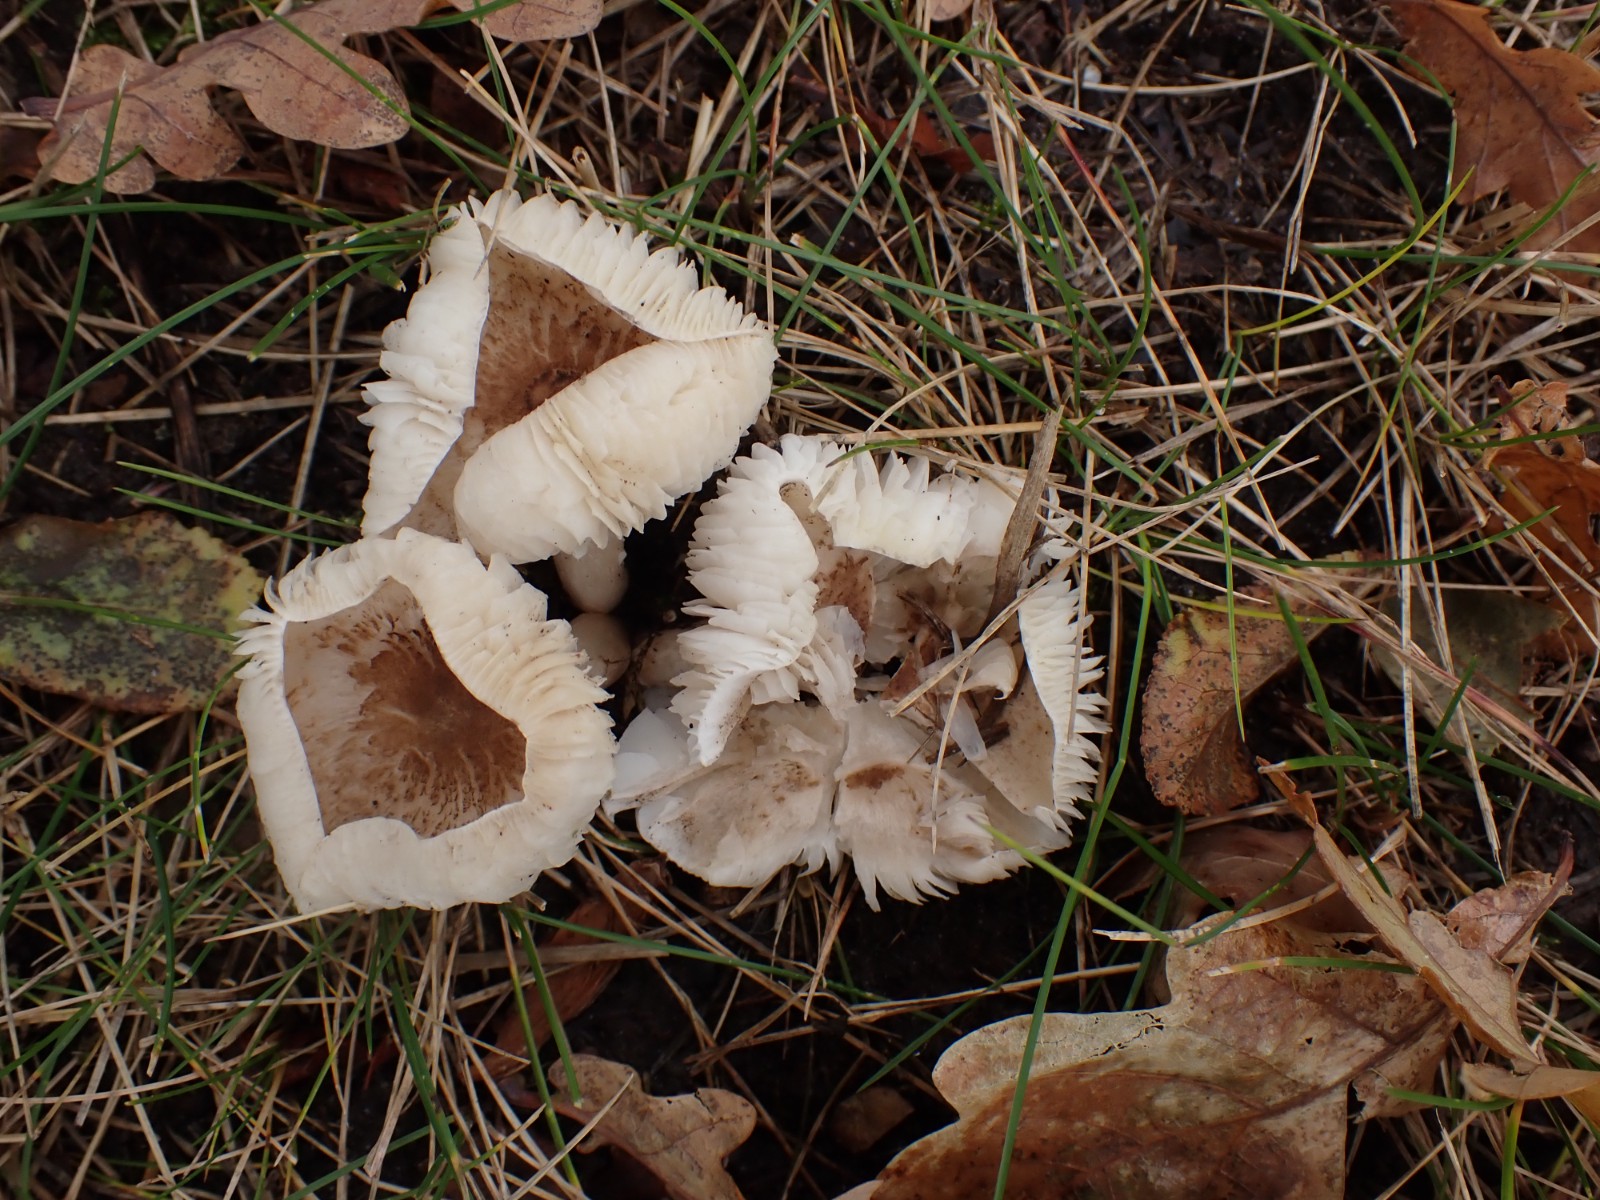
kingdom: Fungi
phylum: Basidiomycota
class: Agaricomycetes
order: Agaricales
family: Tricholomataceae
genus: Tricholoma
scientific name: Tricholoma
